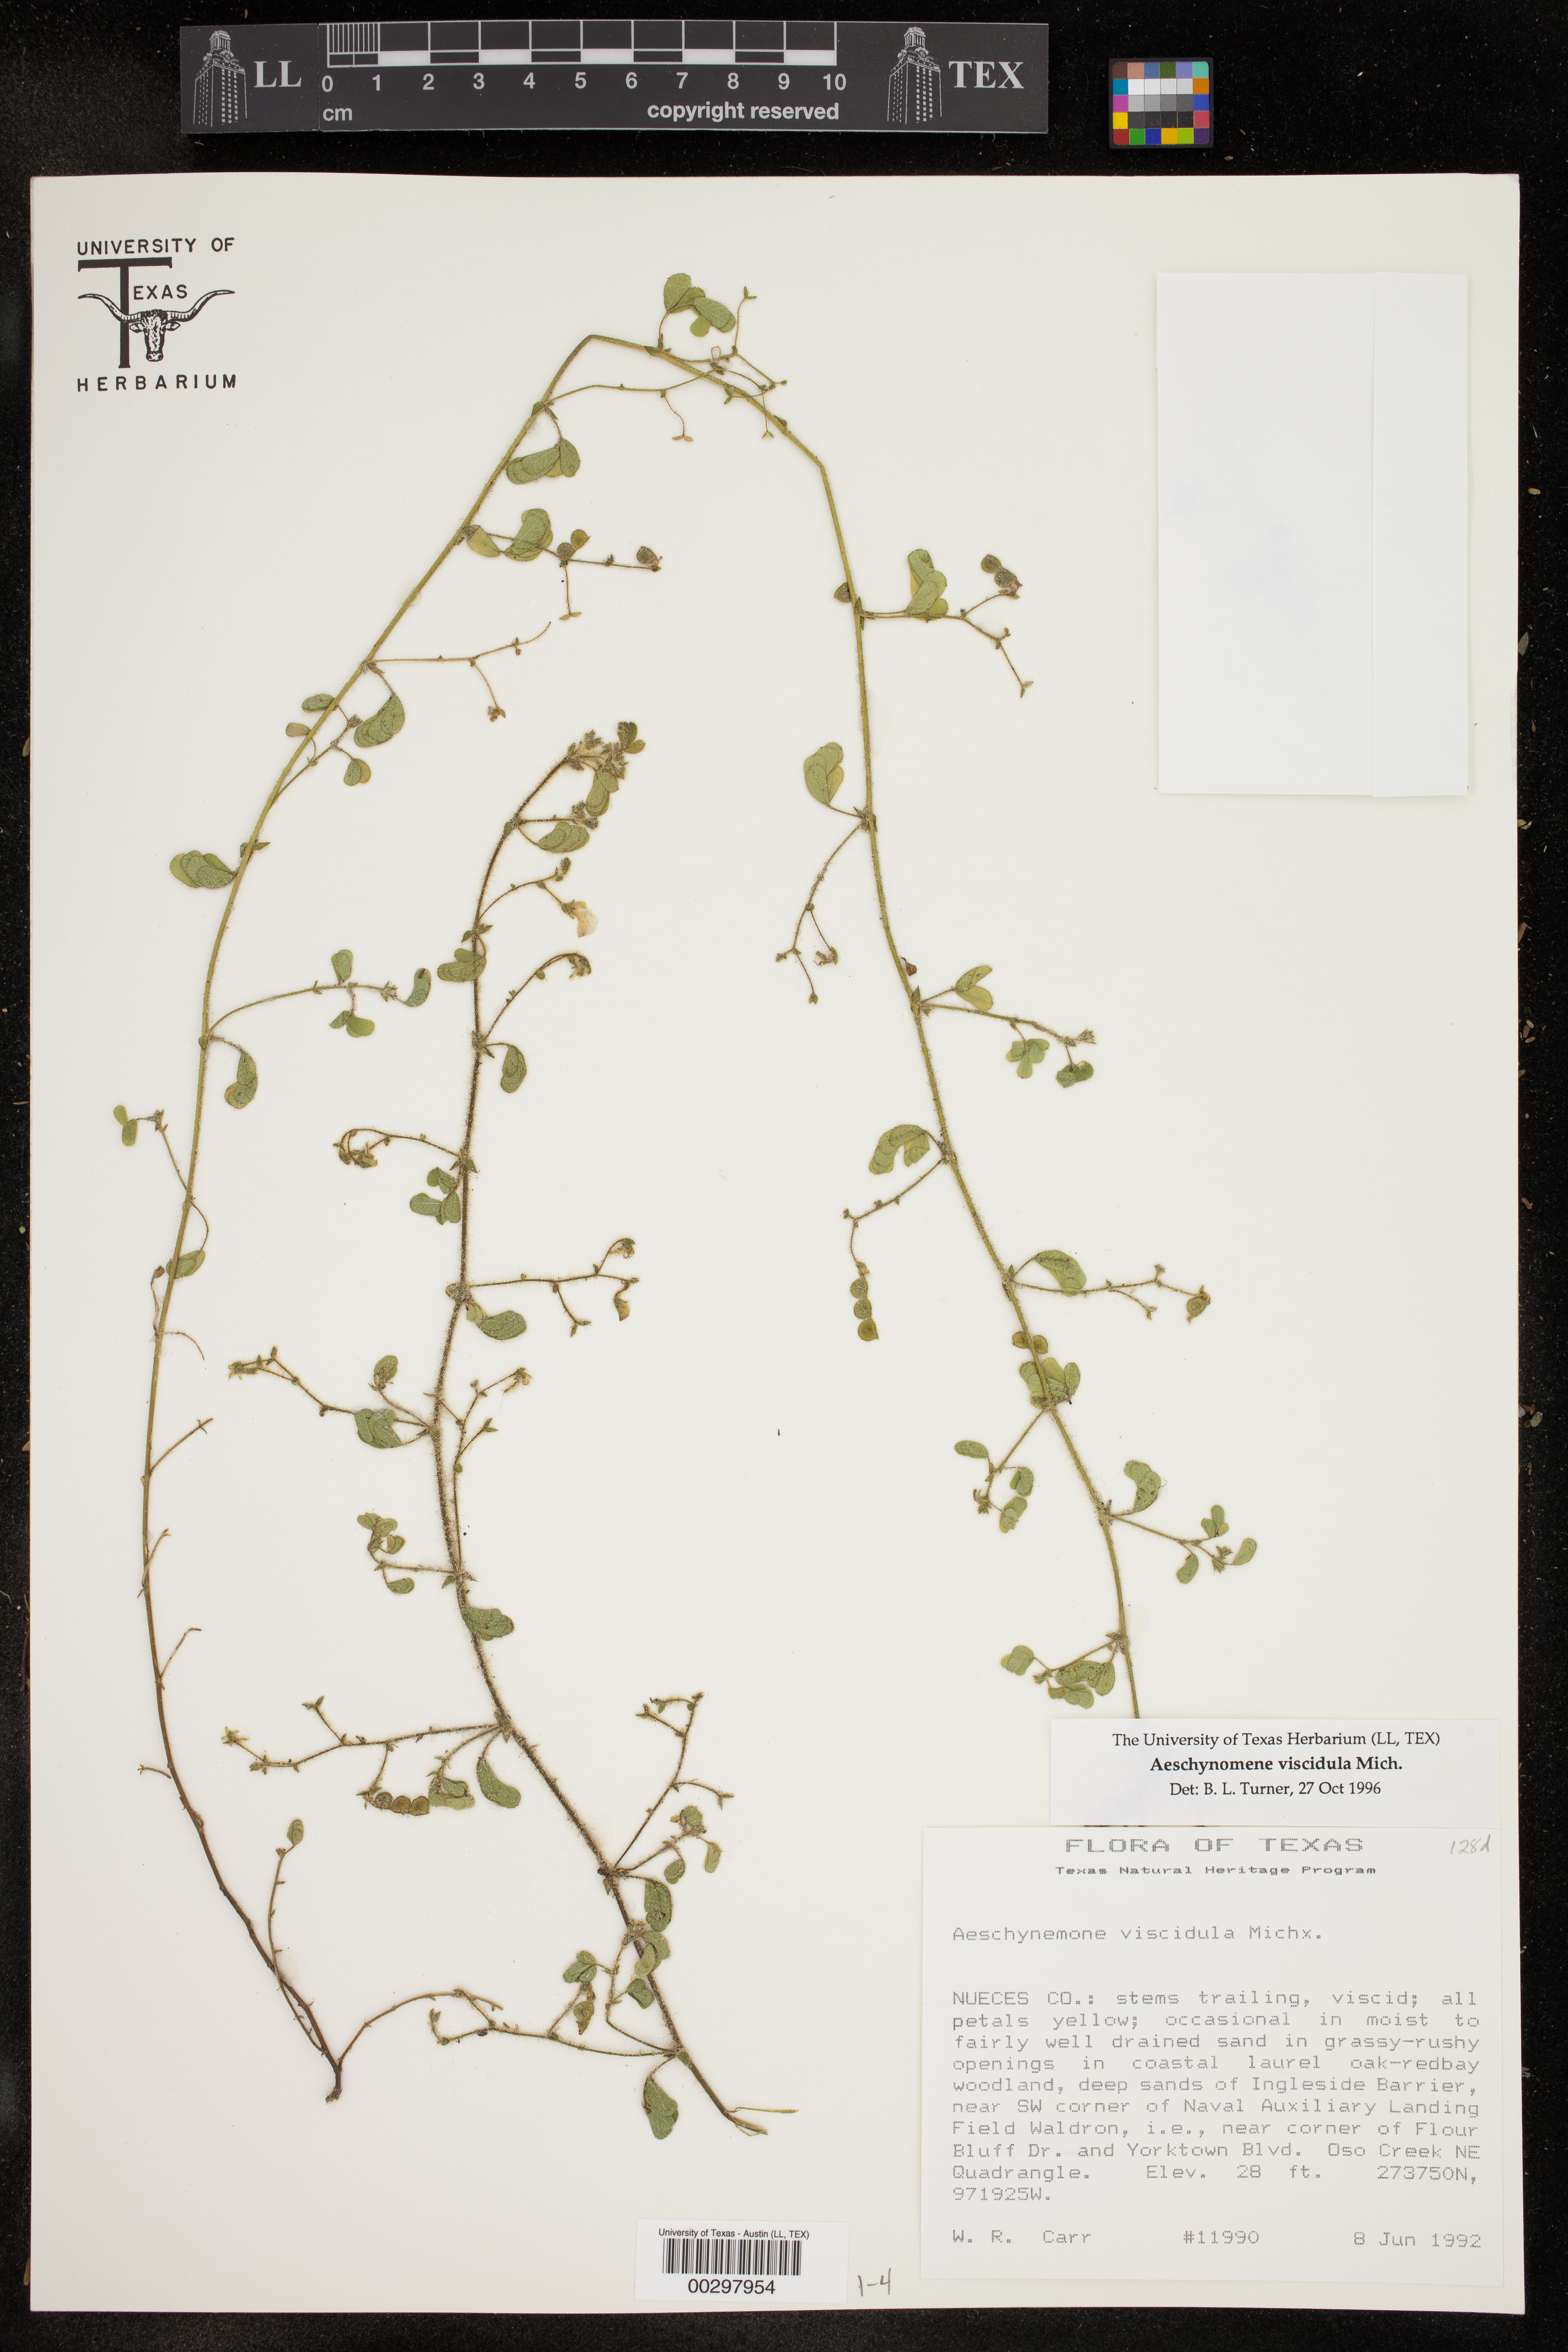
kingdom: Plantae
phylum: Tracheophyta
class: Magnoliopsida
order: Fabales
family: Fabaceae
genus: Aeschynomene
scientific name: Aeschynomene indica
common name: Indian jointvetch
